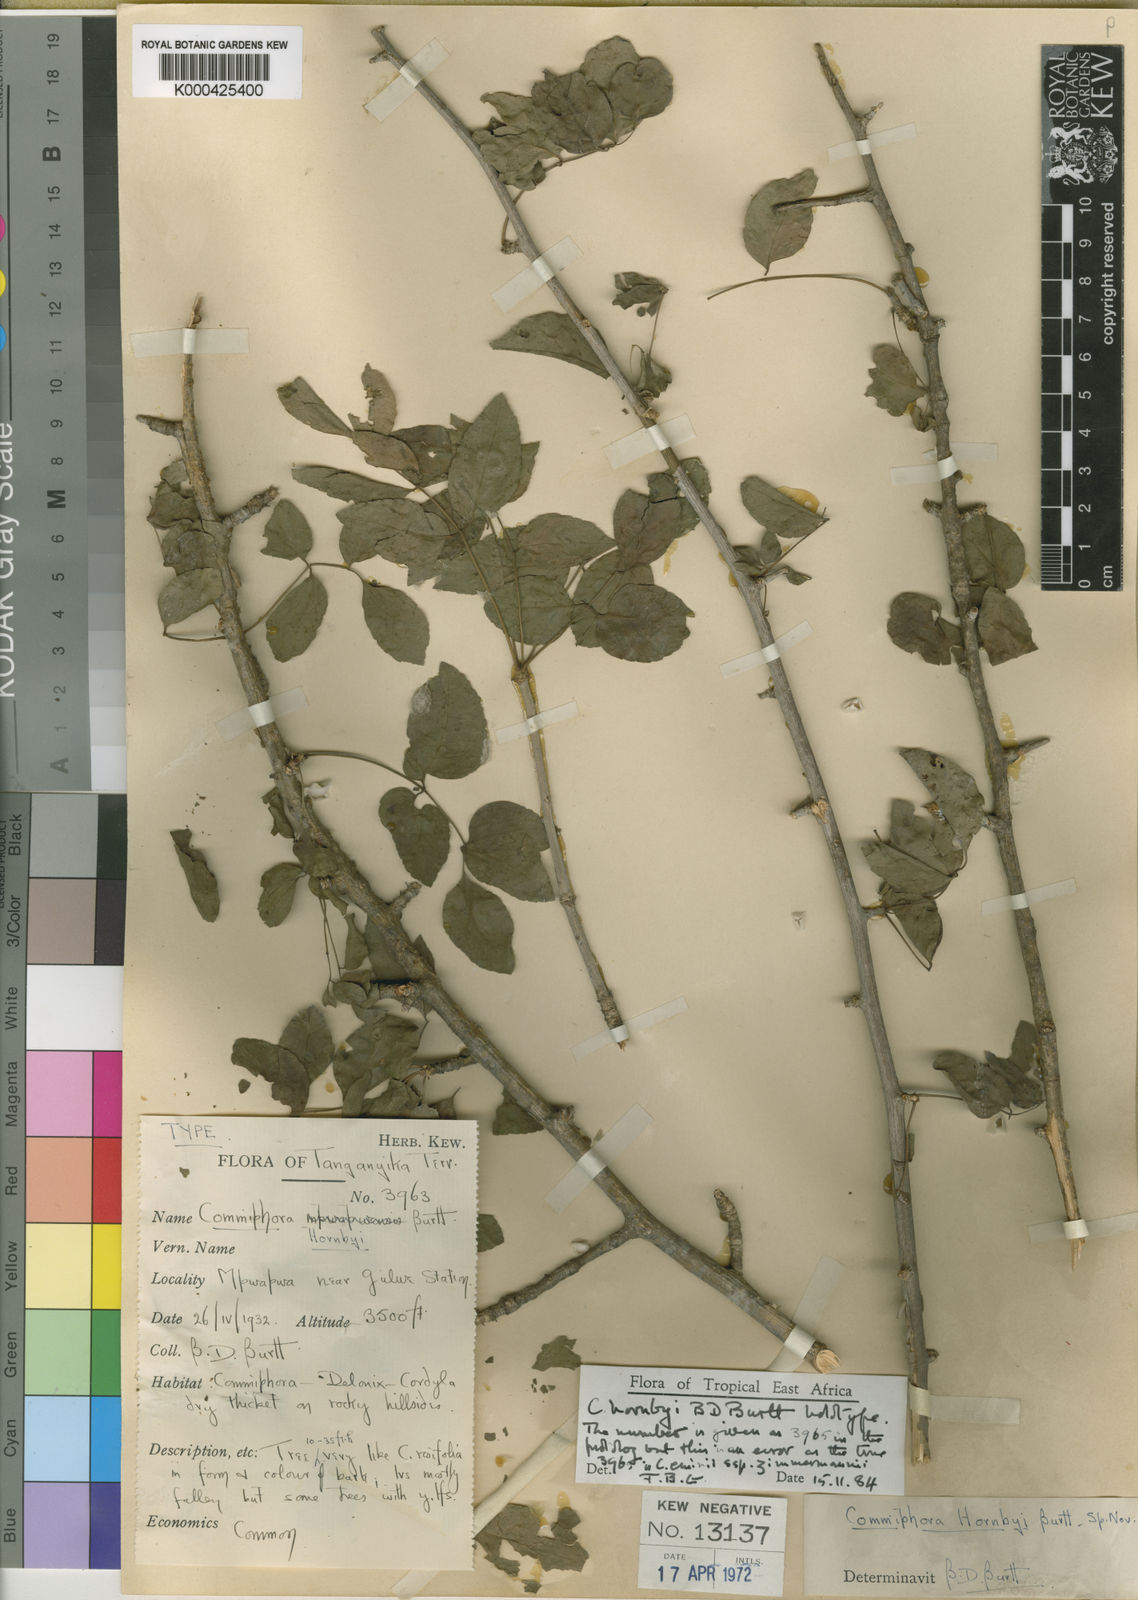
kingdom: Plantae
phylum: Tracheophyta
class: Magnoliopsida
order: Sapindales
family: Burseraceae
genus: Commiphora
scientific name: Commiphora hornbyi
